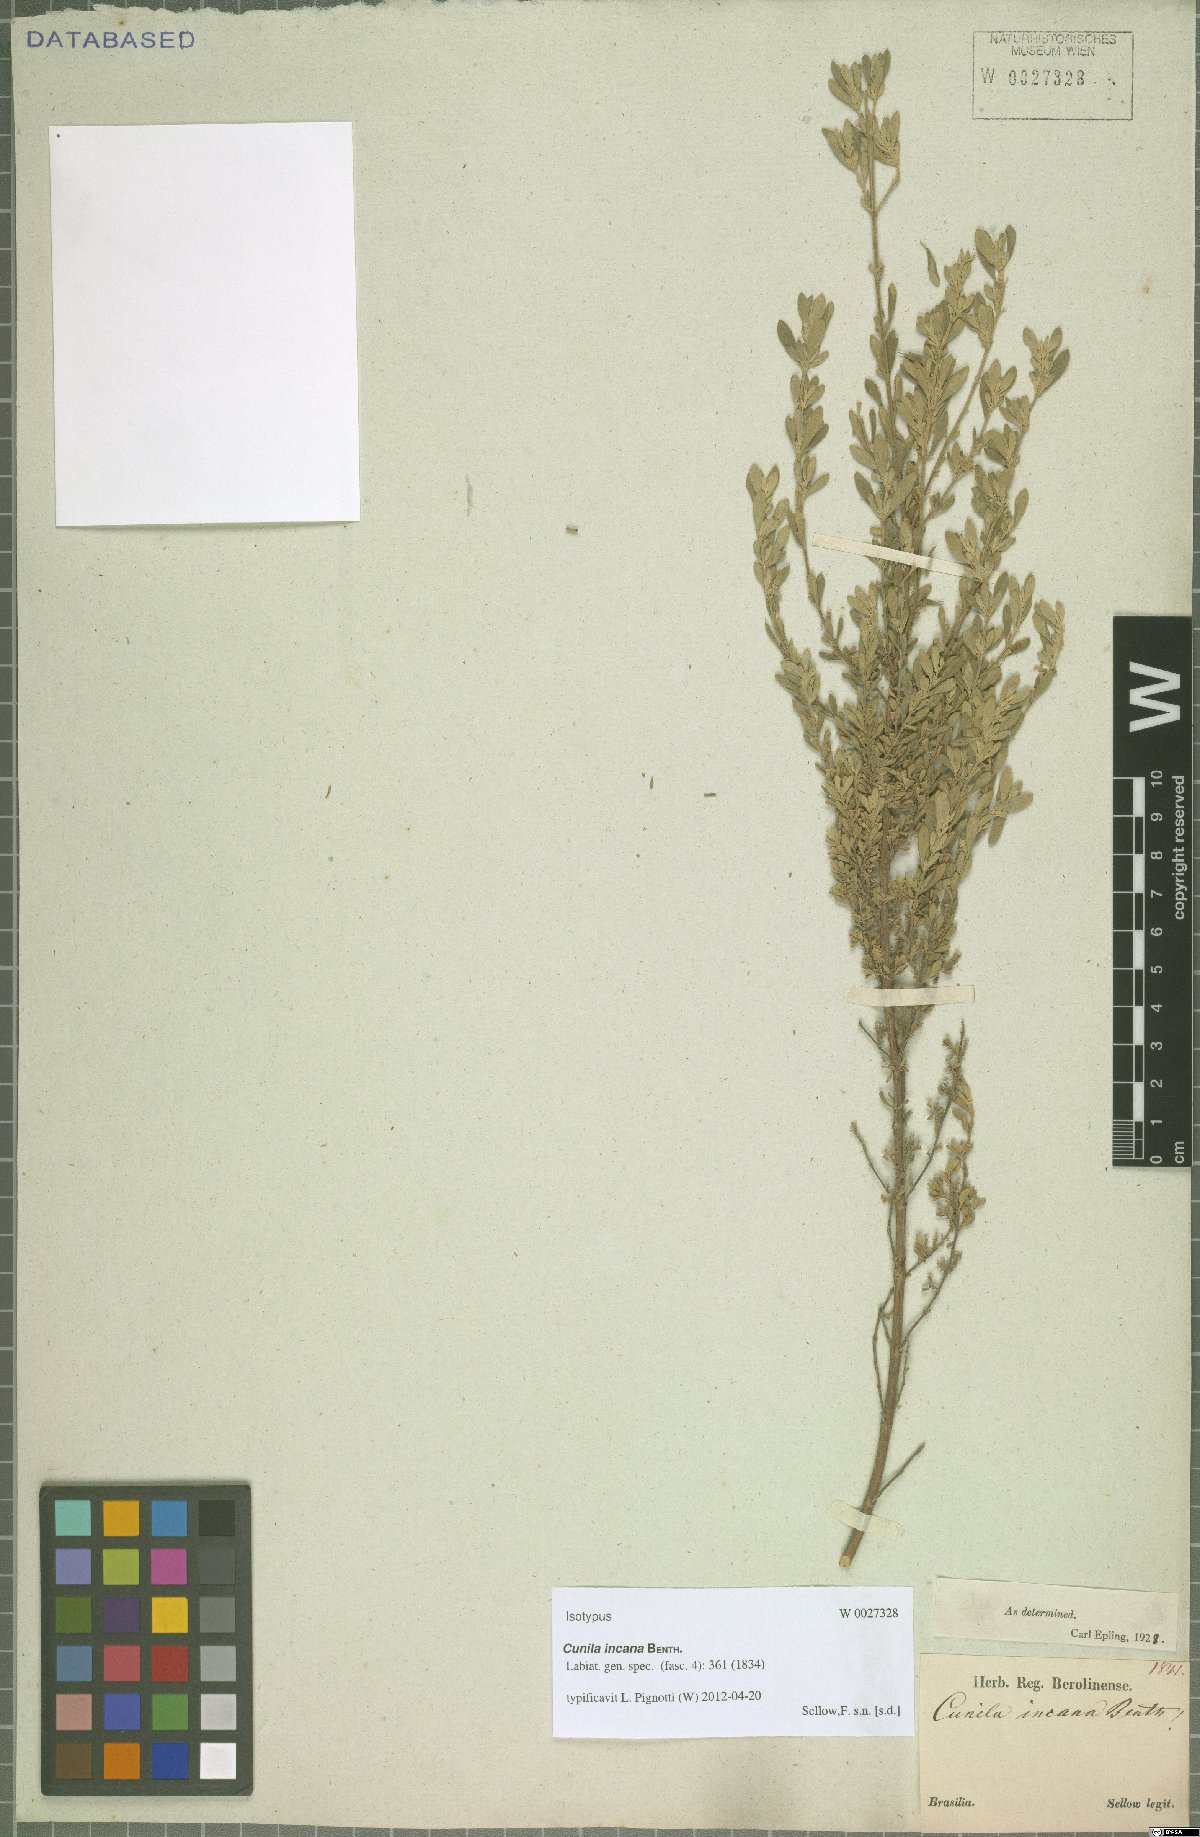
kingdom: Plantae
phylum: Tracheophyta
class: Magnoliopsida
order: Lamiales
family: Lamiaceae
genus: Cunila
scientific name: Cunila incana
